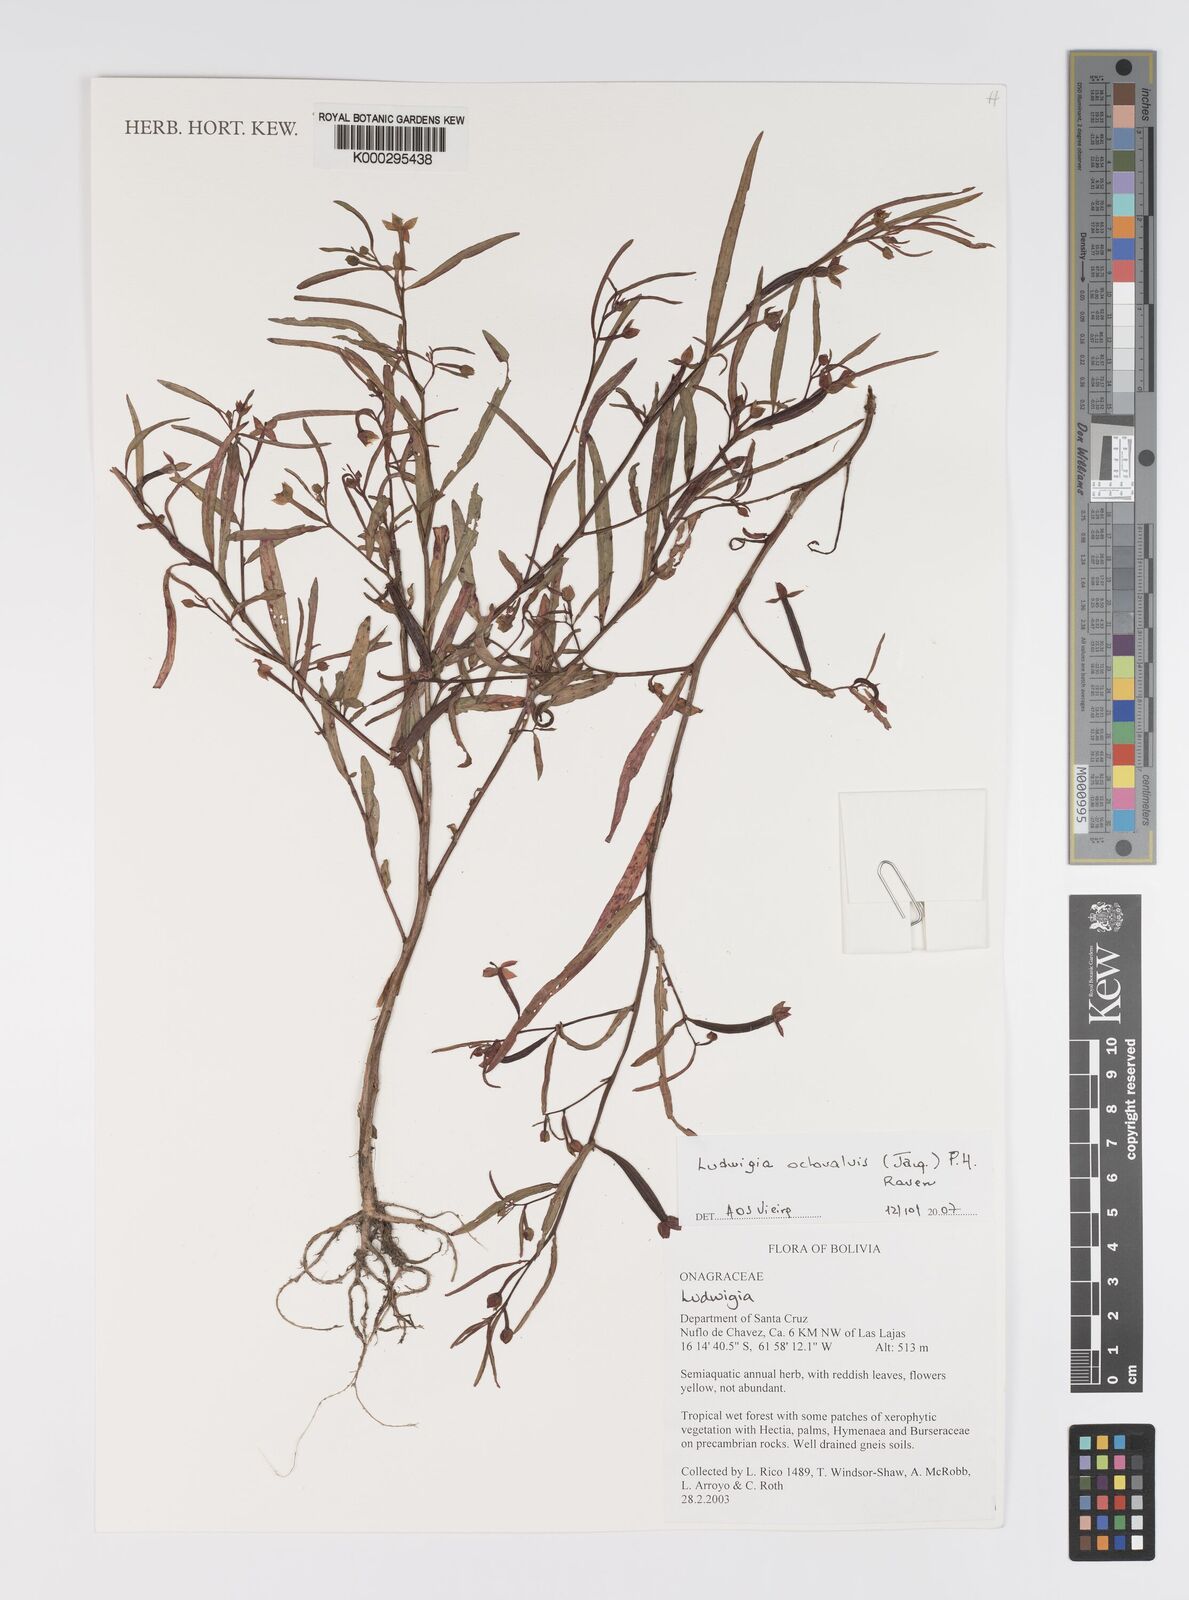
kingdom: Plantae
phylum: Tracheophyta
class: Magnoliopsida
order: Myrtales
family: Onagraceae
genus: Ludwigia
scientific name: Ludwigia octovalvis
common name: Water-primrose
